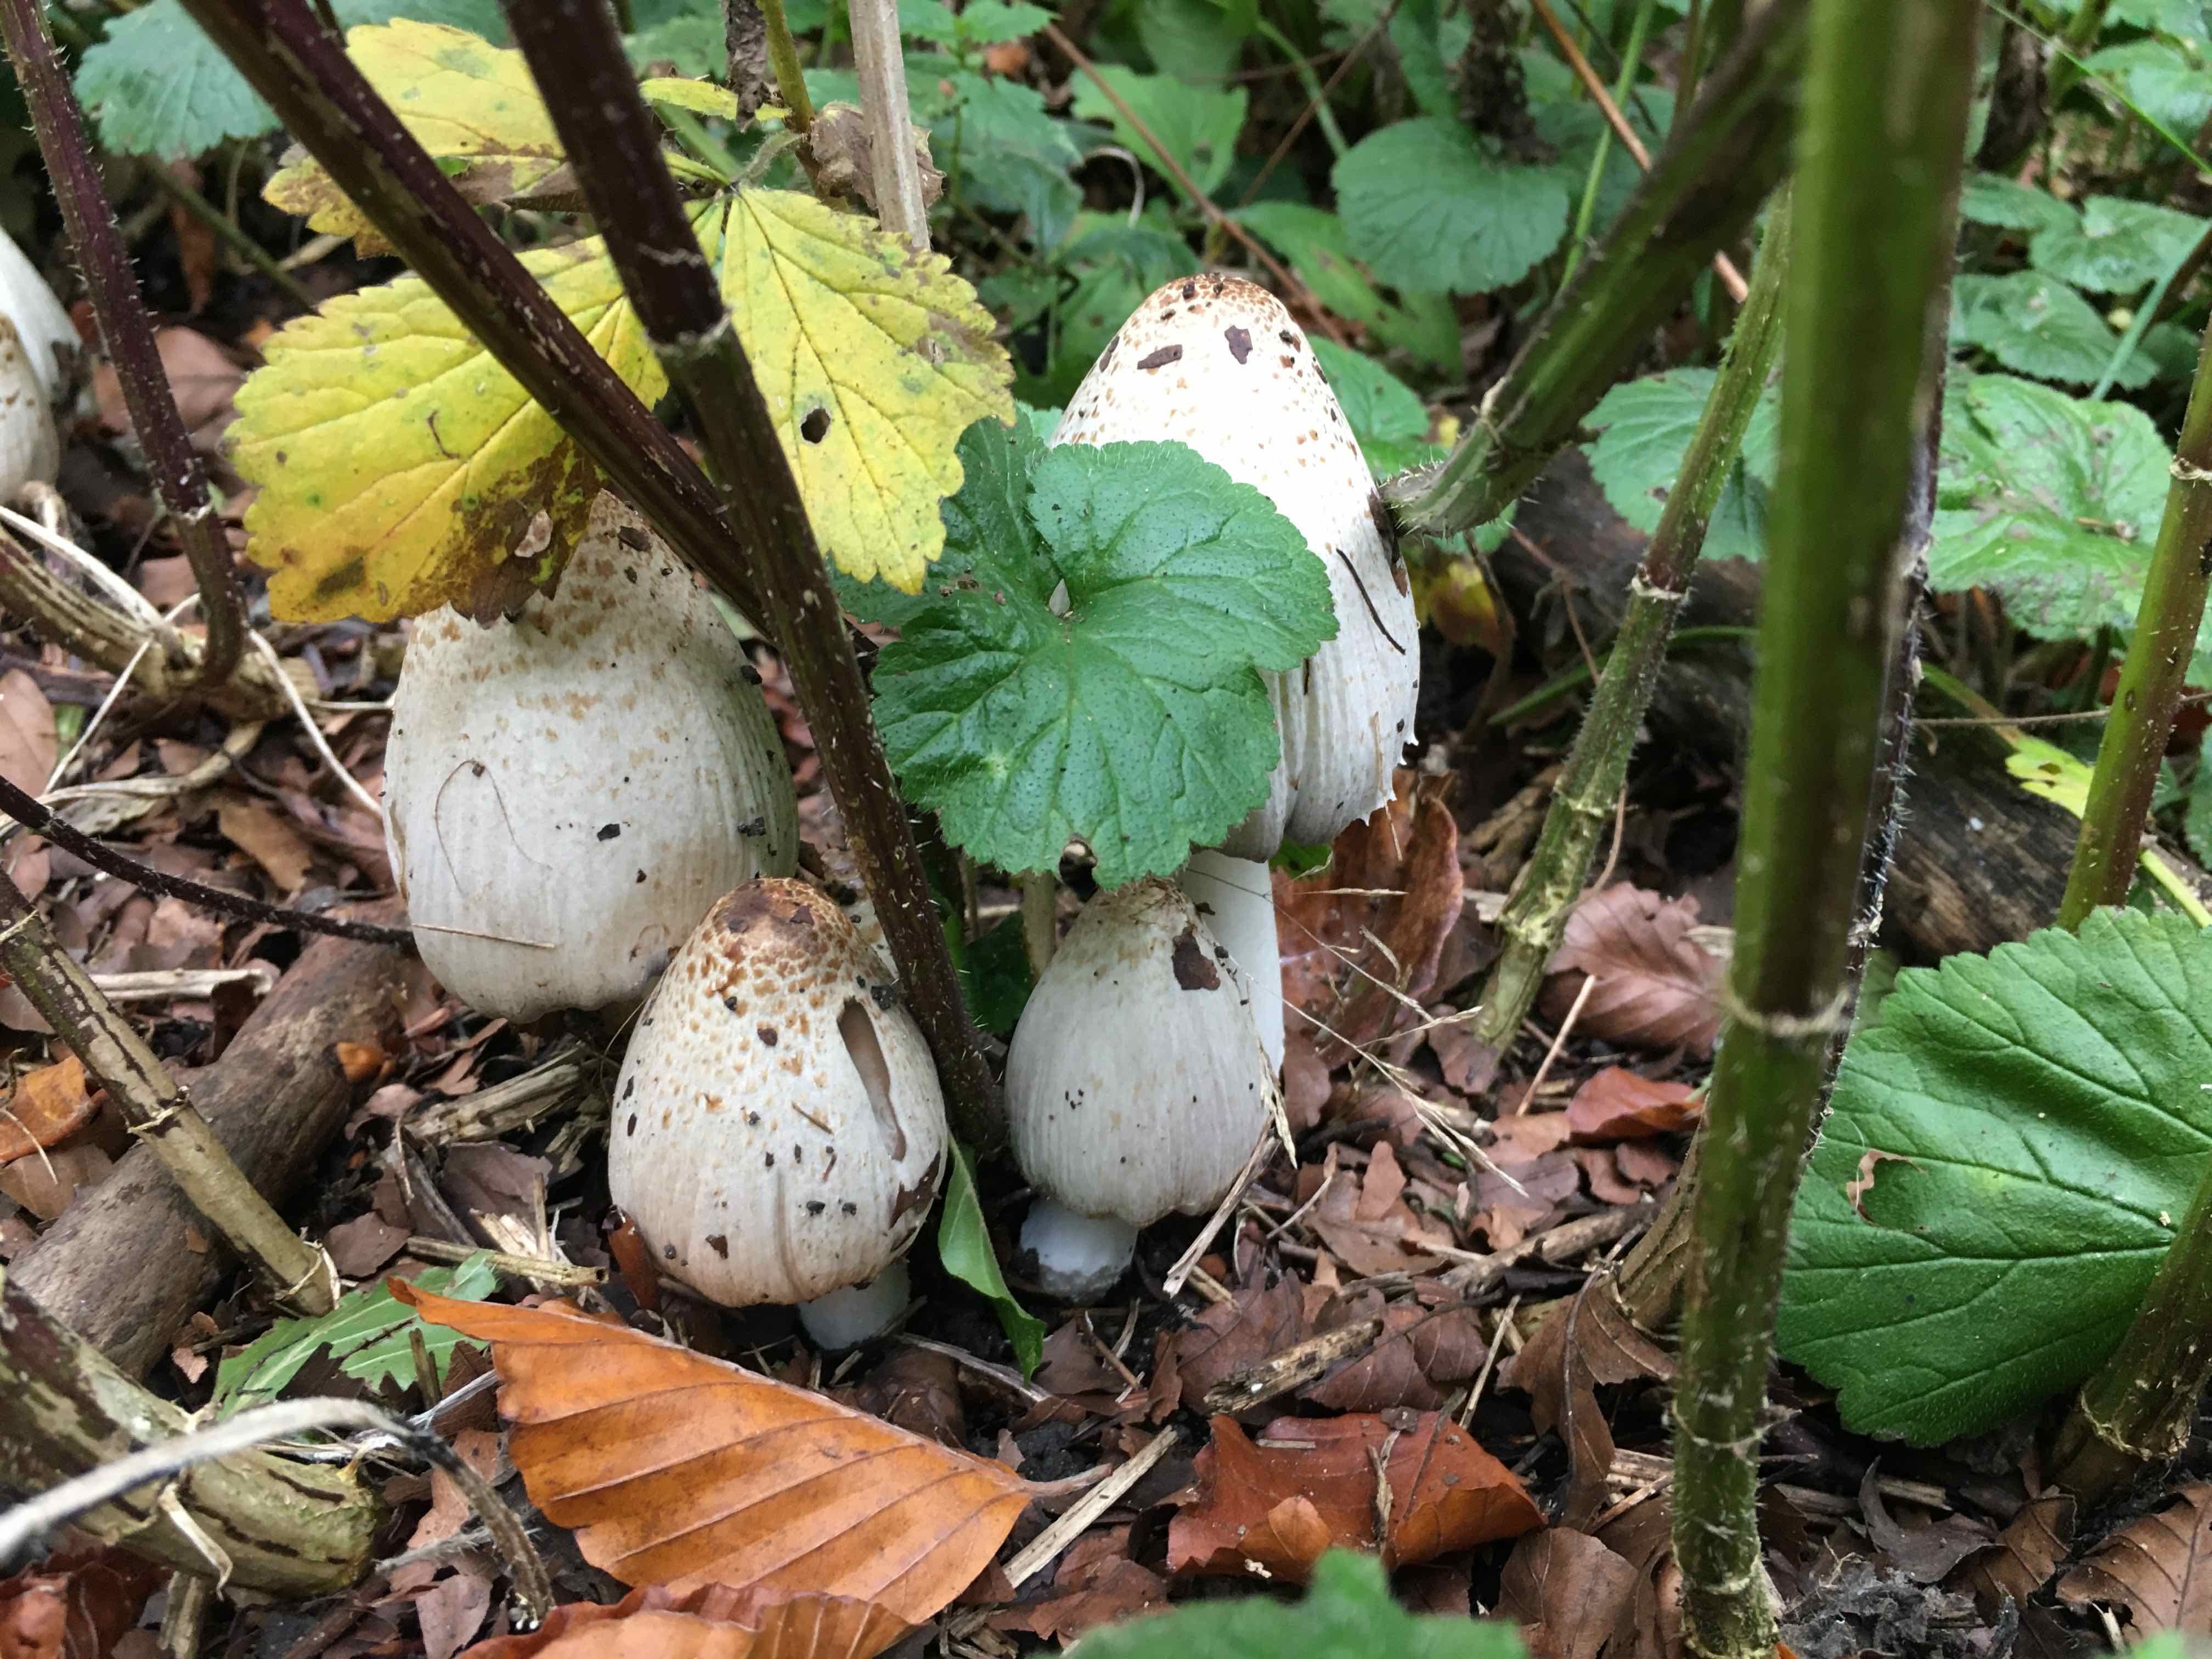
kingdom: Fungi
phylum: Basidiomycota
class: Agaricomycetes
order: Agaricales
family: Psathyrellaceae
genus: Coprinopsis
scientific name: Coprinopsis atramentaria
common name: almindelig blækhat
